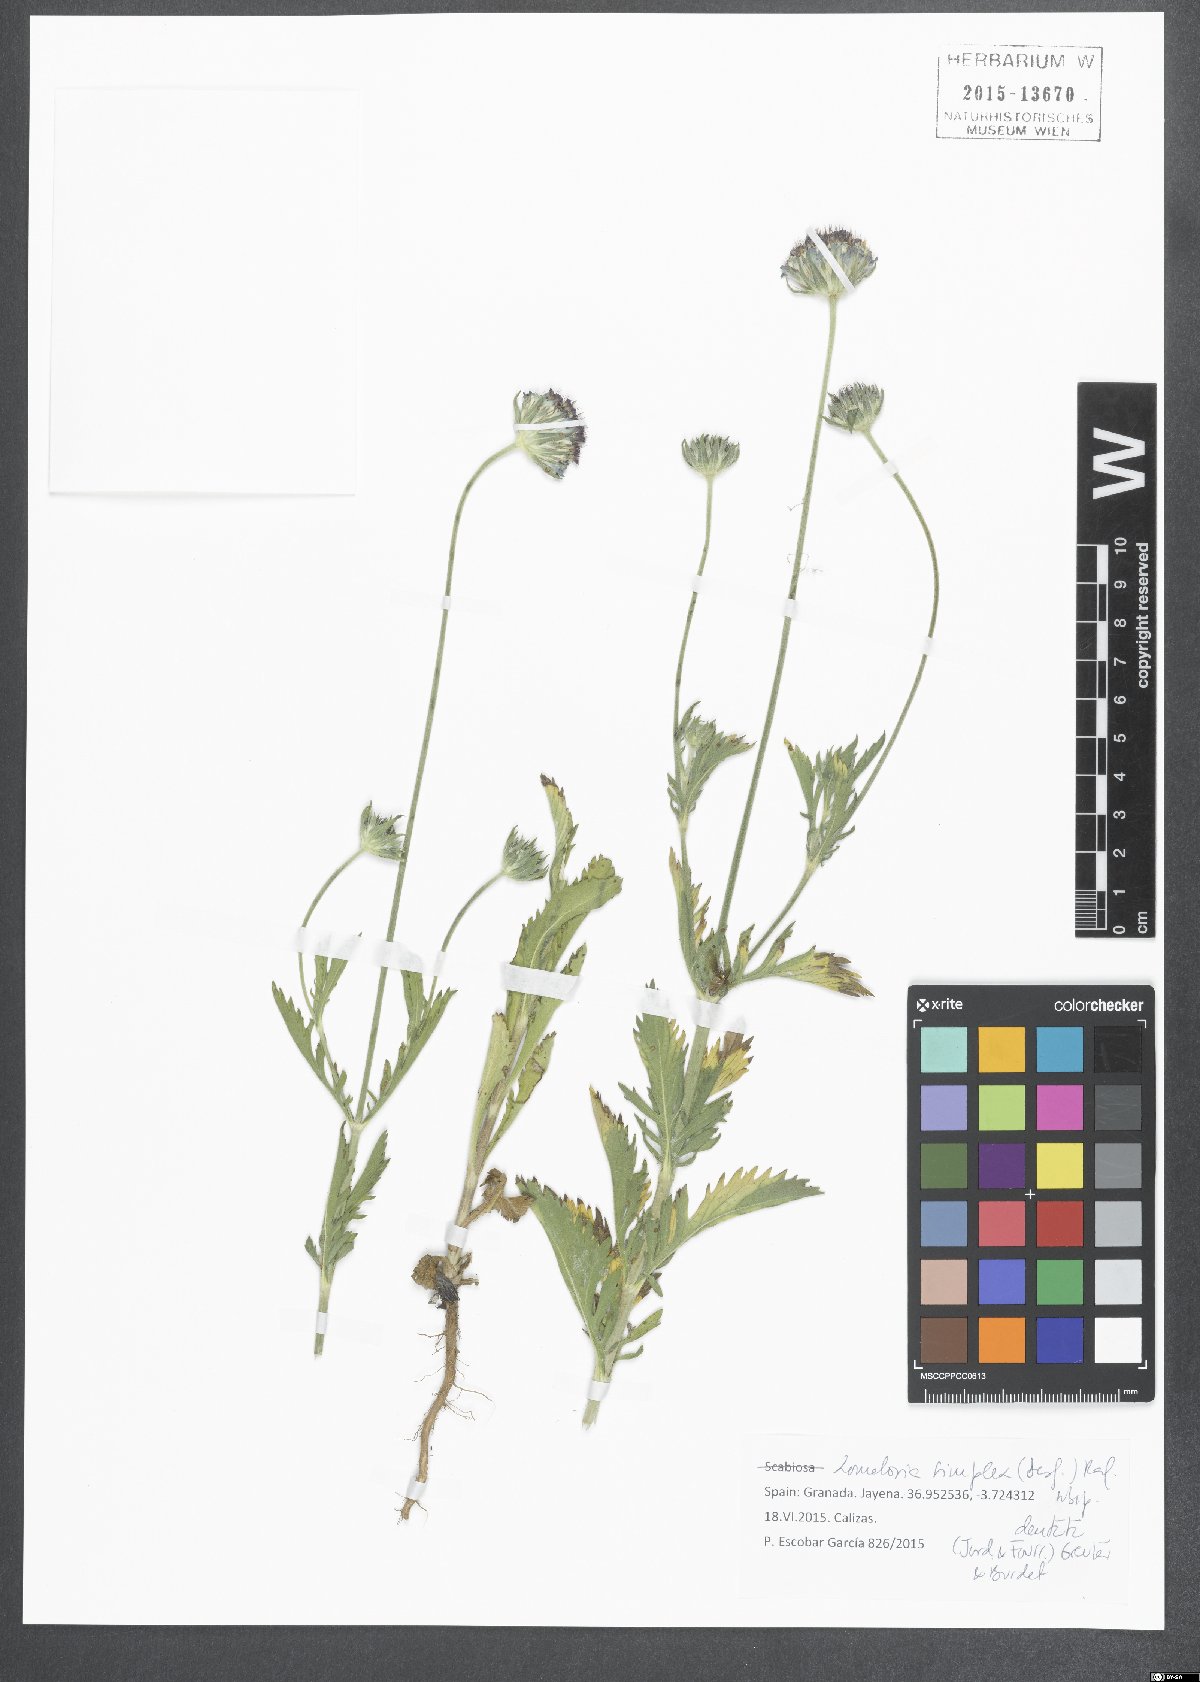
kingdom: Plantae
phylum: Tracheophyta
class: Magnoliopsida
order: Dipsacales
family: Caprifoliaceae
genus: Lomelosia
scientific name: Lomelosia simplex
